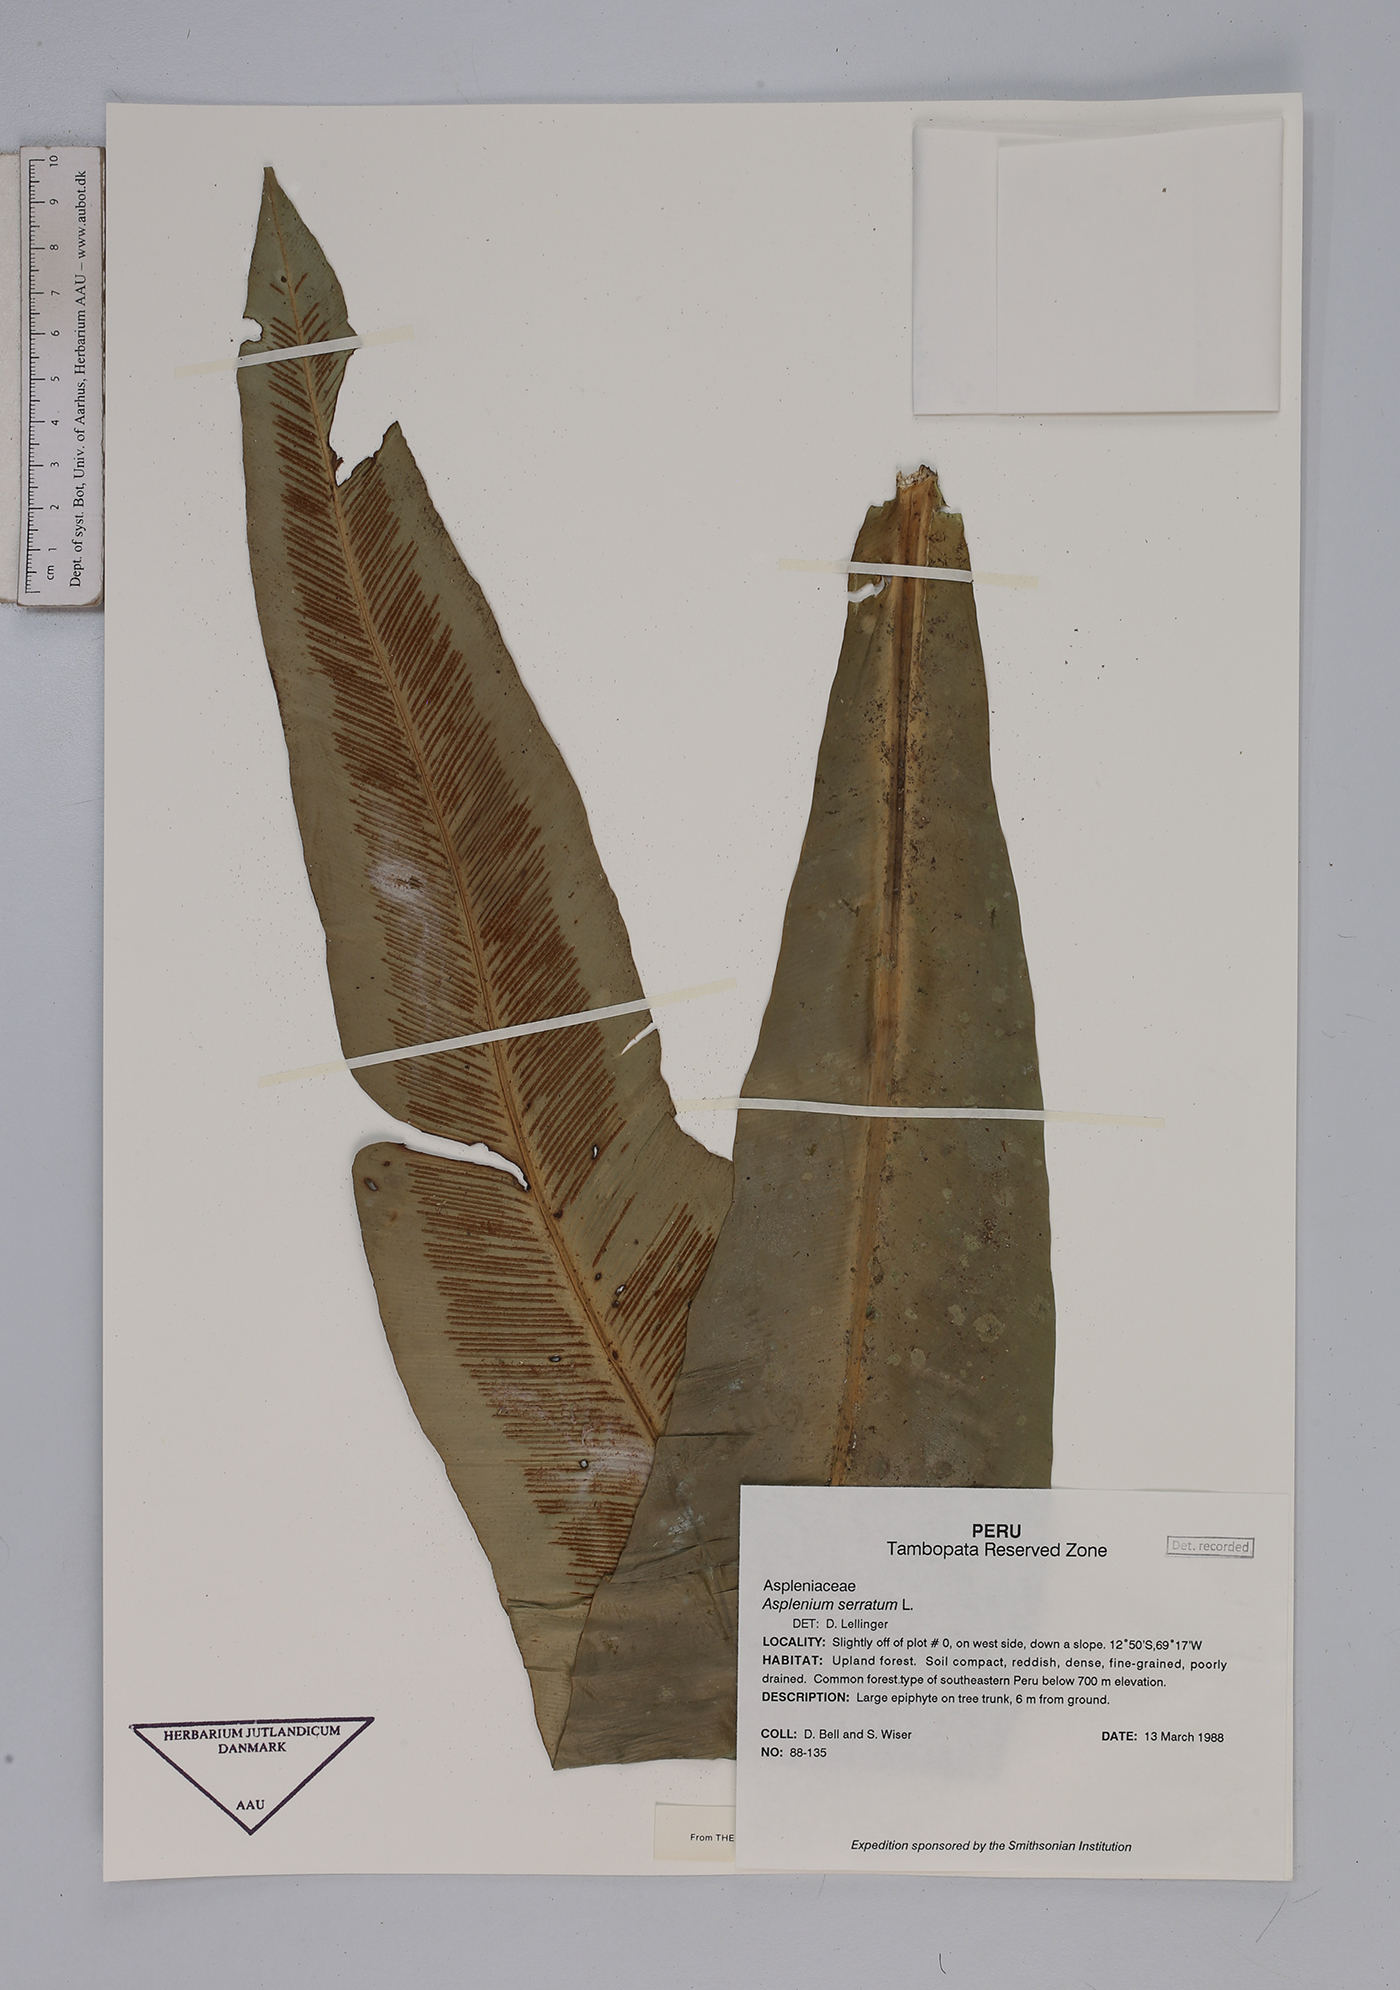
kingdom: Plantae
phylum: Tracheophyta
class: Polypodiopsida
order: Polypodiales
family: Aspleniaceae
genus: Asplenium
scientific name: Asplenium serratum
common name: Wild birdnest fern
